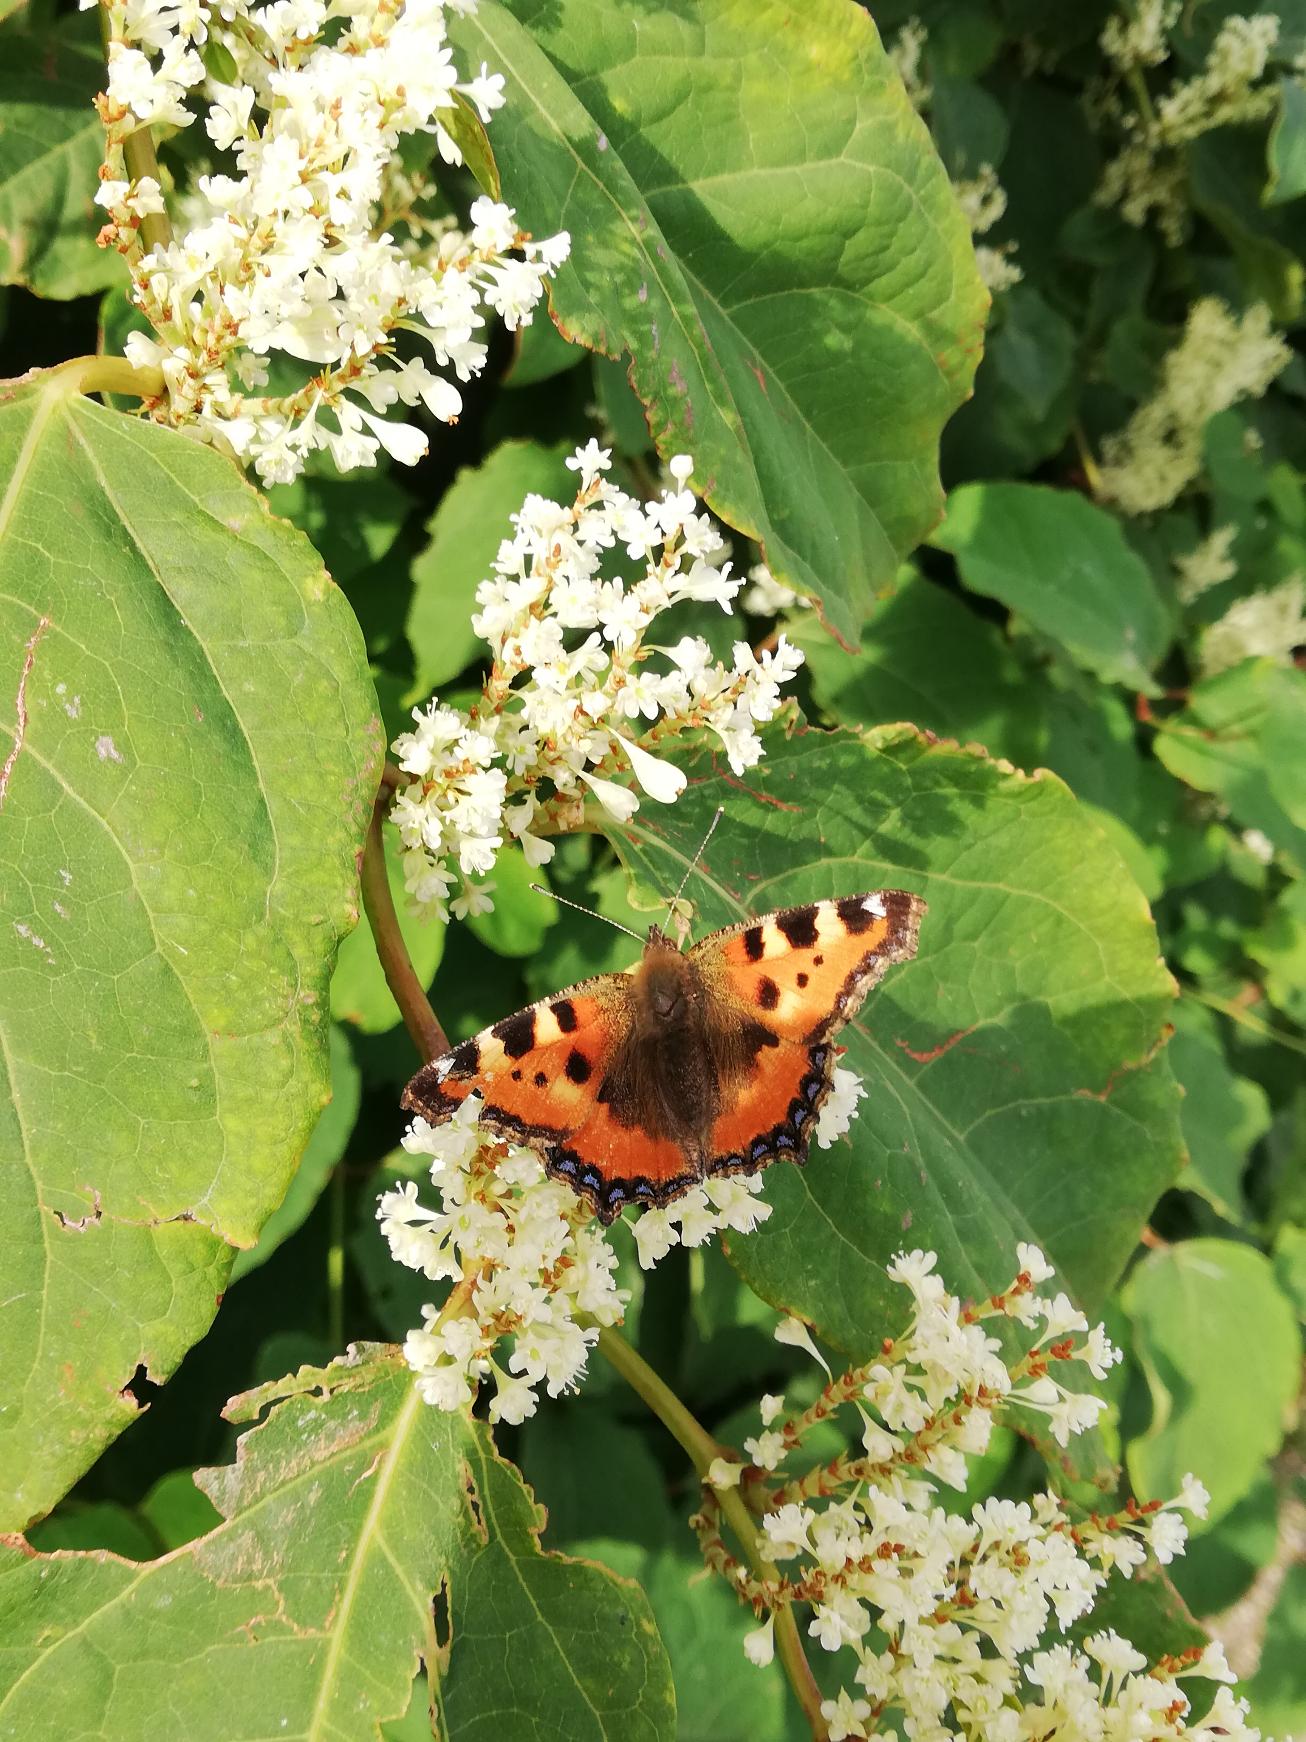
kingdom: Animalia
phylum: Arthropoda
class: Insecta
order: Lepidoptera
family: Nymphalidae
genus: Aglais
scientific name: Aglais urticae
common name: Nældens takvinge
